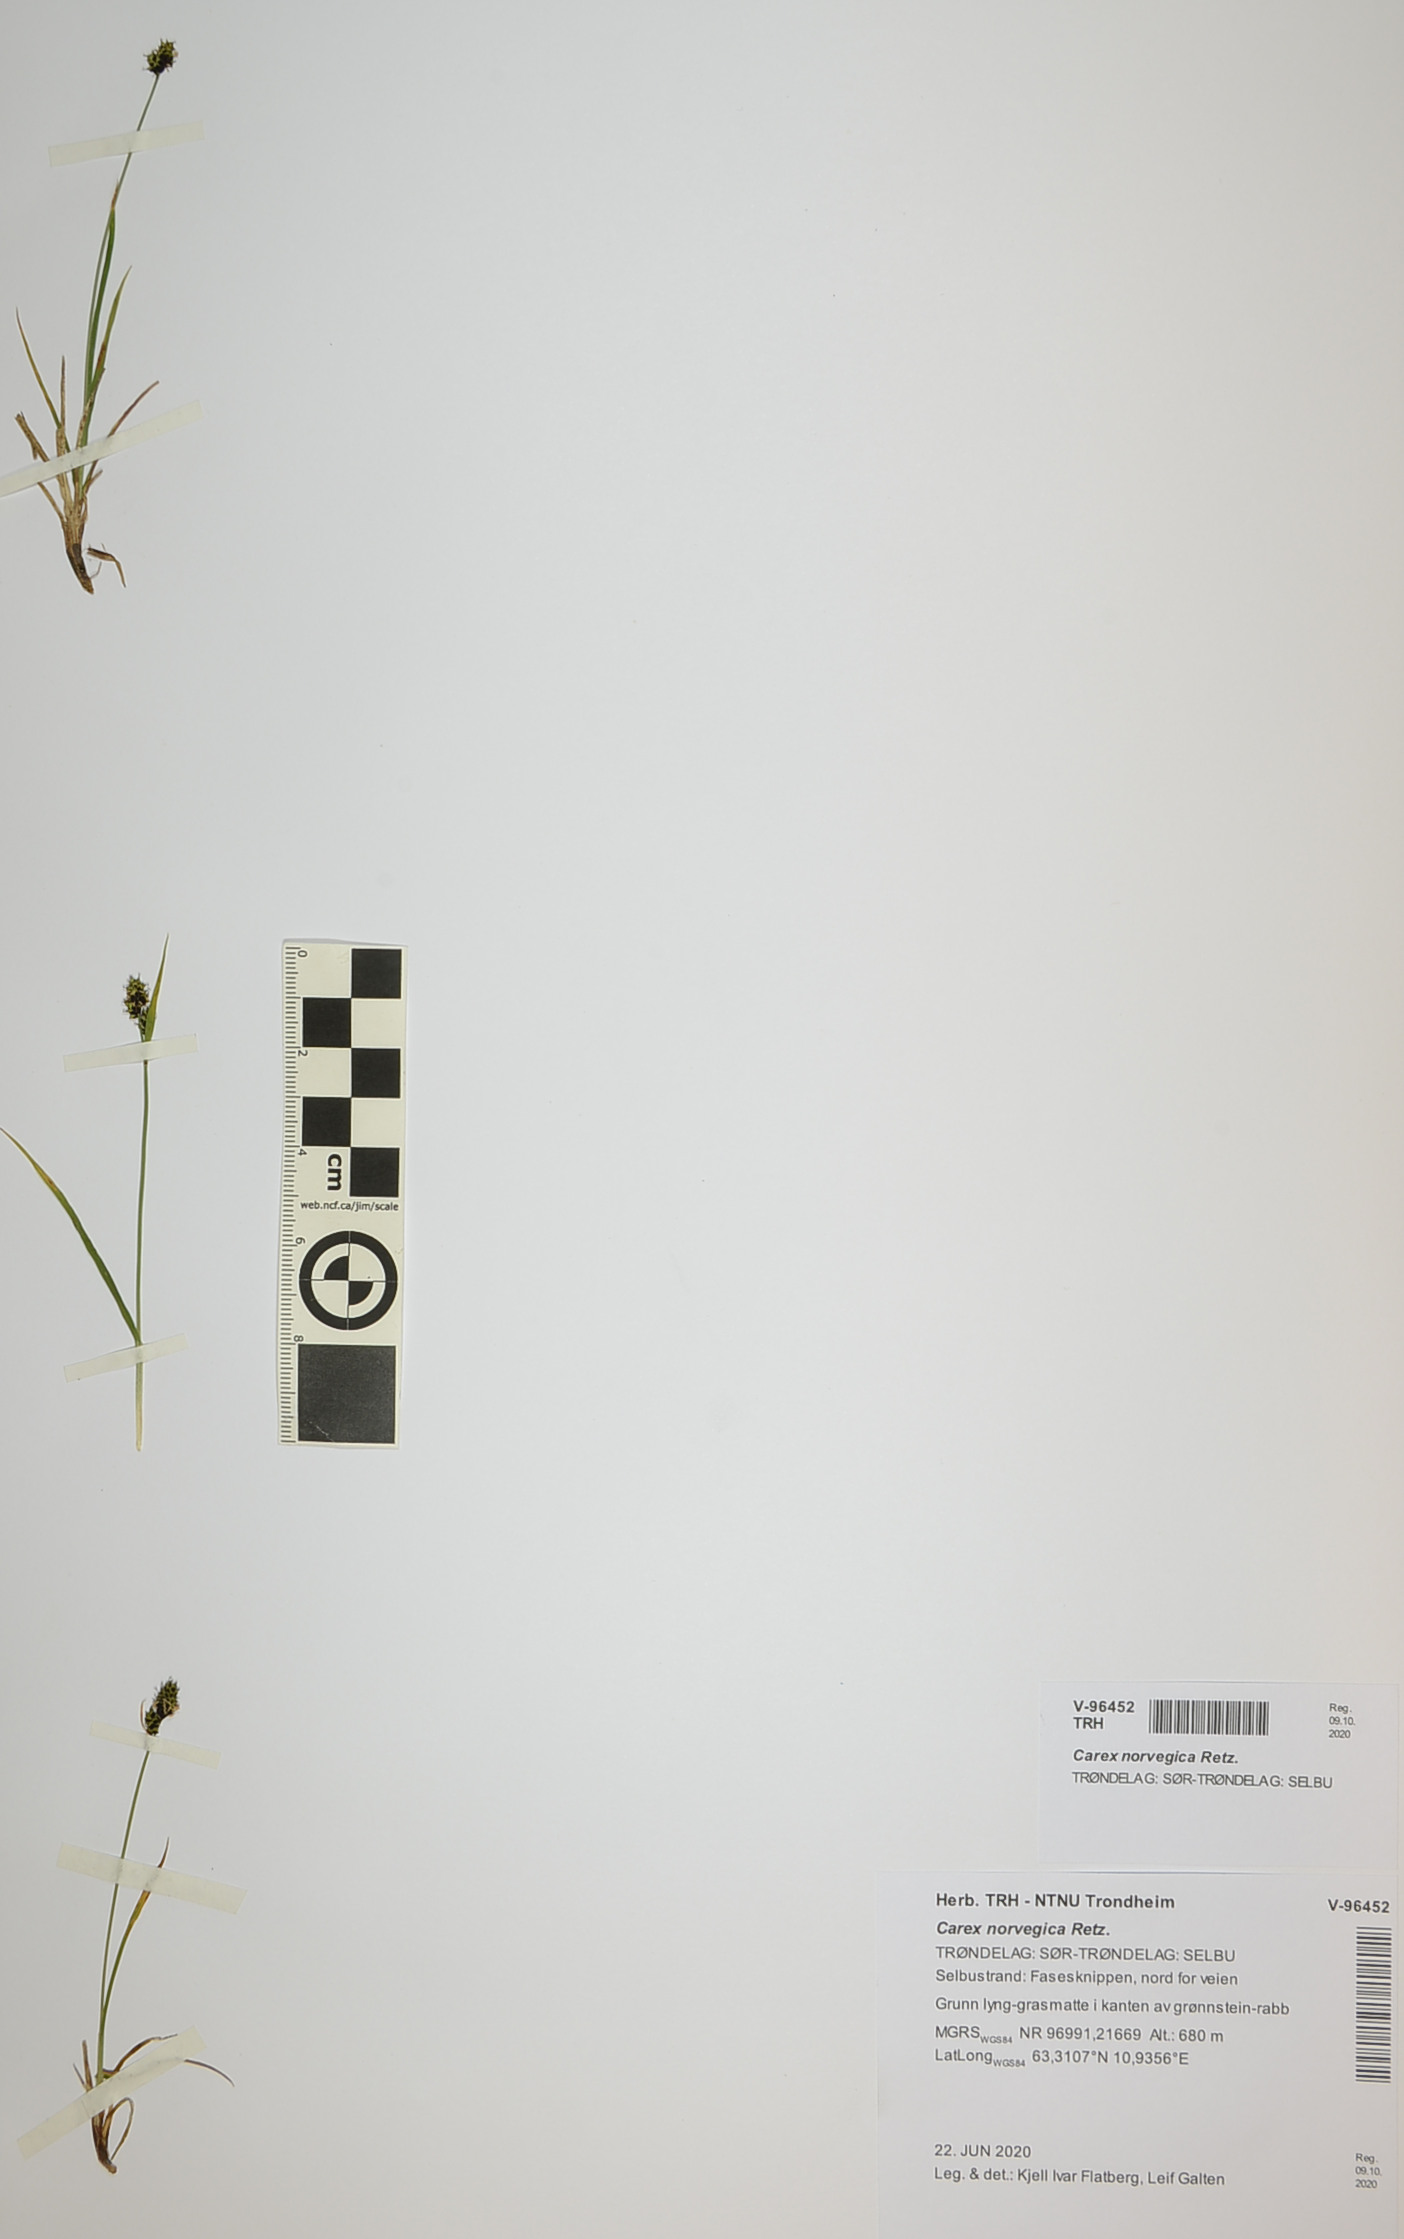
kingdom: Plantae
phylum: Tracheophyta
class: Liliopsida
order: Poales
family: Cyperaceae
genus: Carex
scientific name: Carex norvegica
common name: Close-headed alpine-sedge
